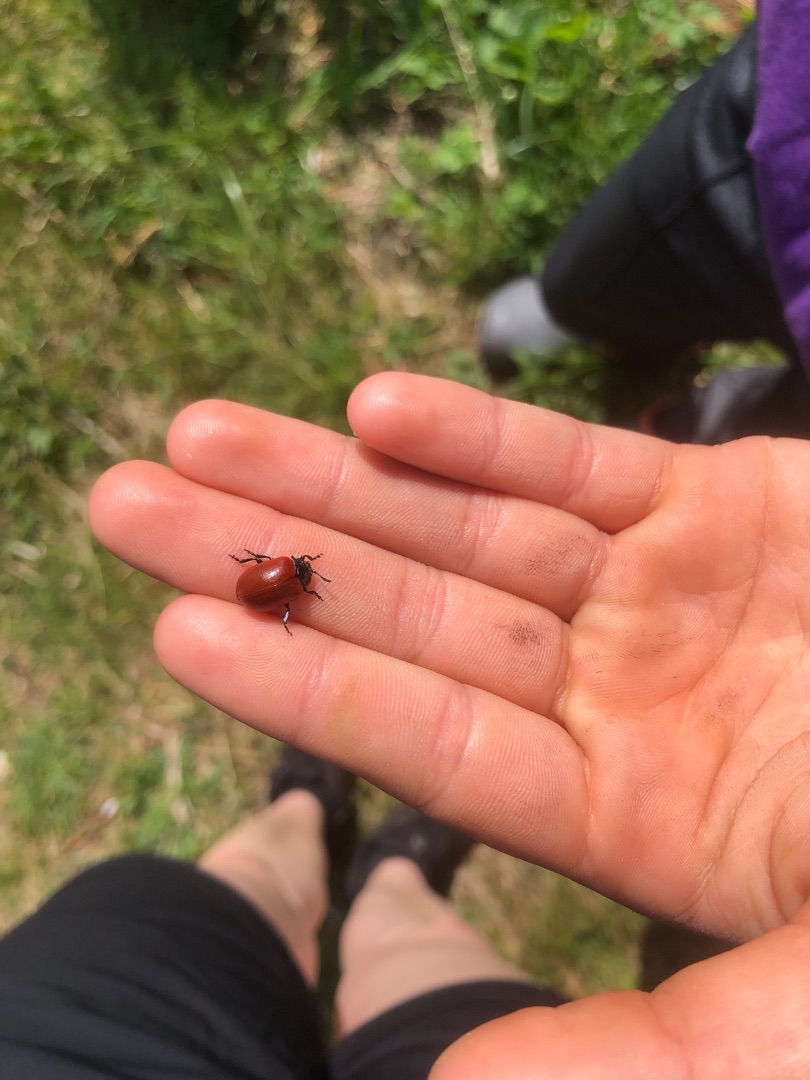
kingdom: Animalia
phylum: Arthropoda
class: Insecta
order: Coleoptera
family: Chrysomelidae
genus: Chrysomela
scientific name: Chrysomela populi
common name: Poppelbladbille
